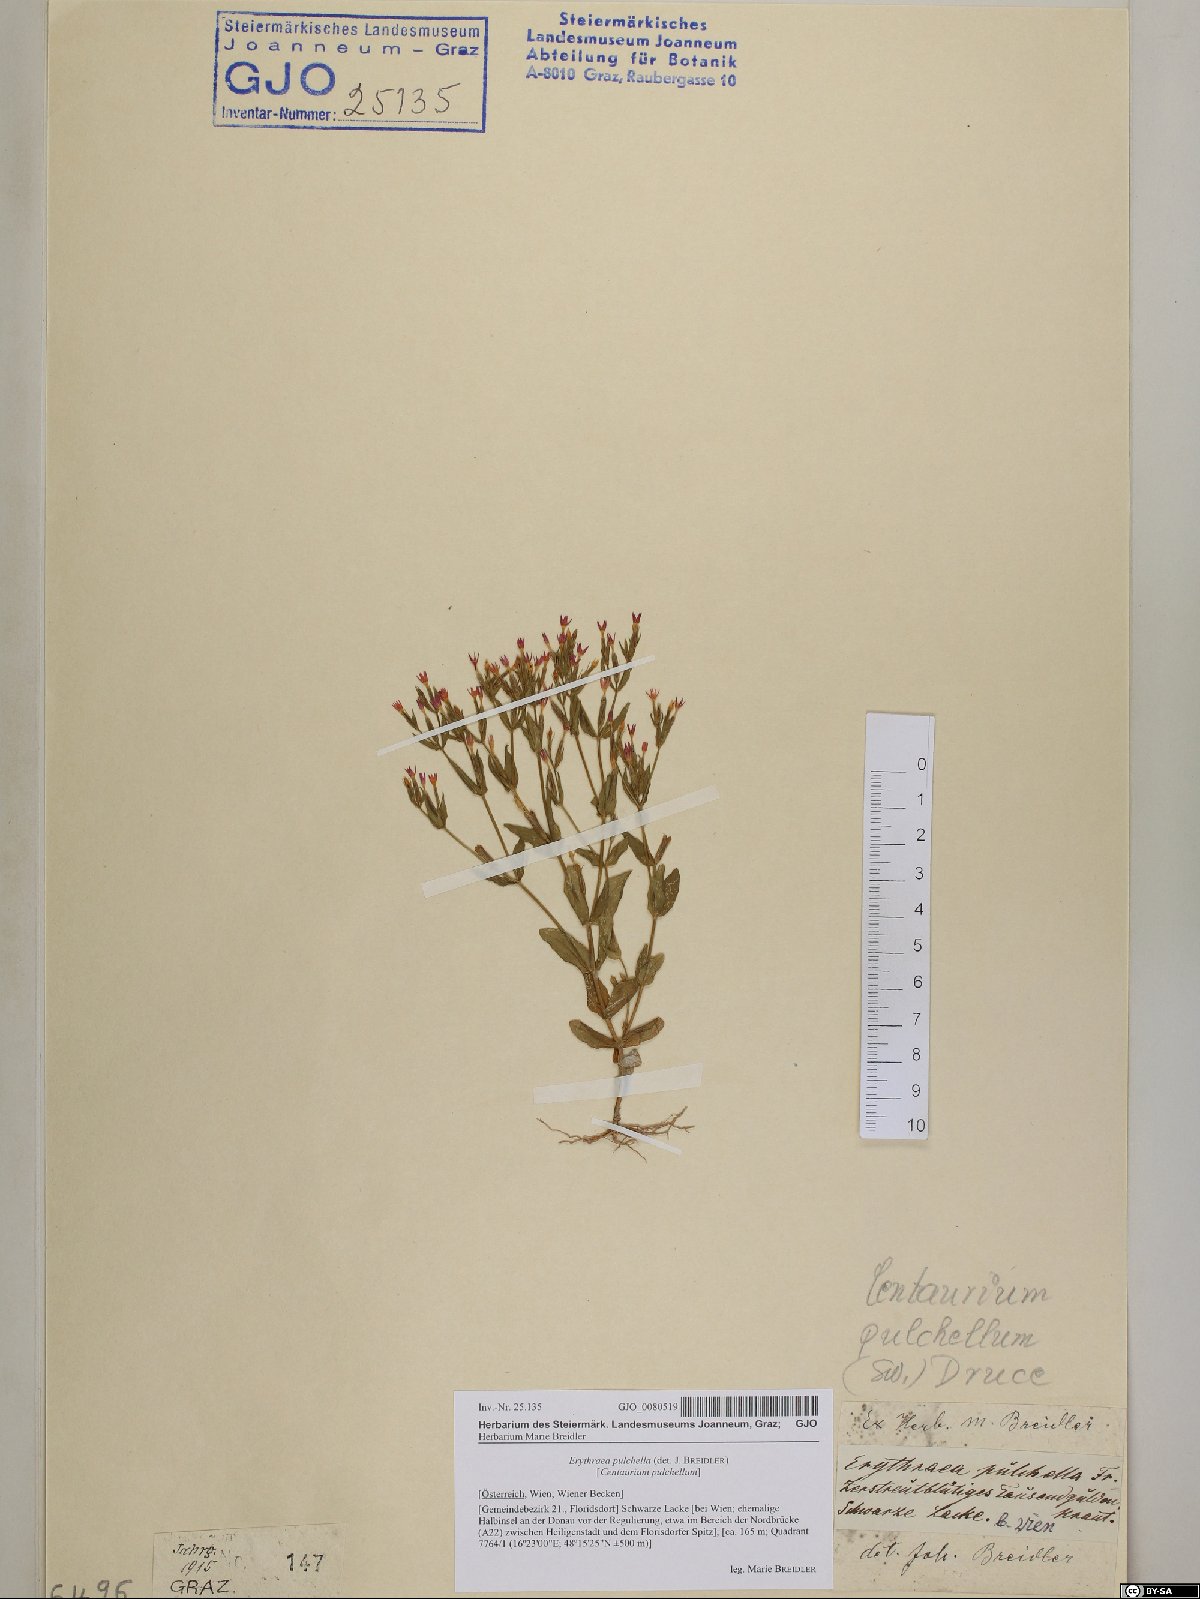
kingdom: Plantae
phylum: Tracheophyta
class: Magnoliopsida
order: Gentianales
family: Gentianaceae
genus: Centaurium
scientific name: Centaurium pulchellum
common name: Lesser centaury
